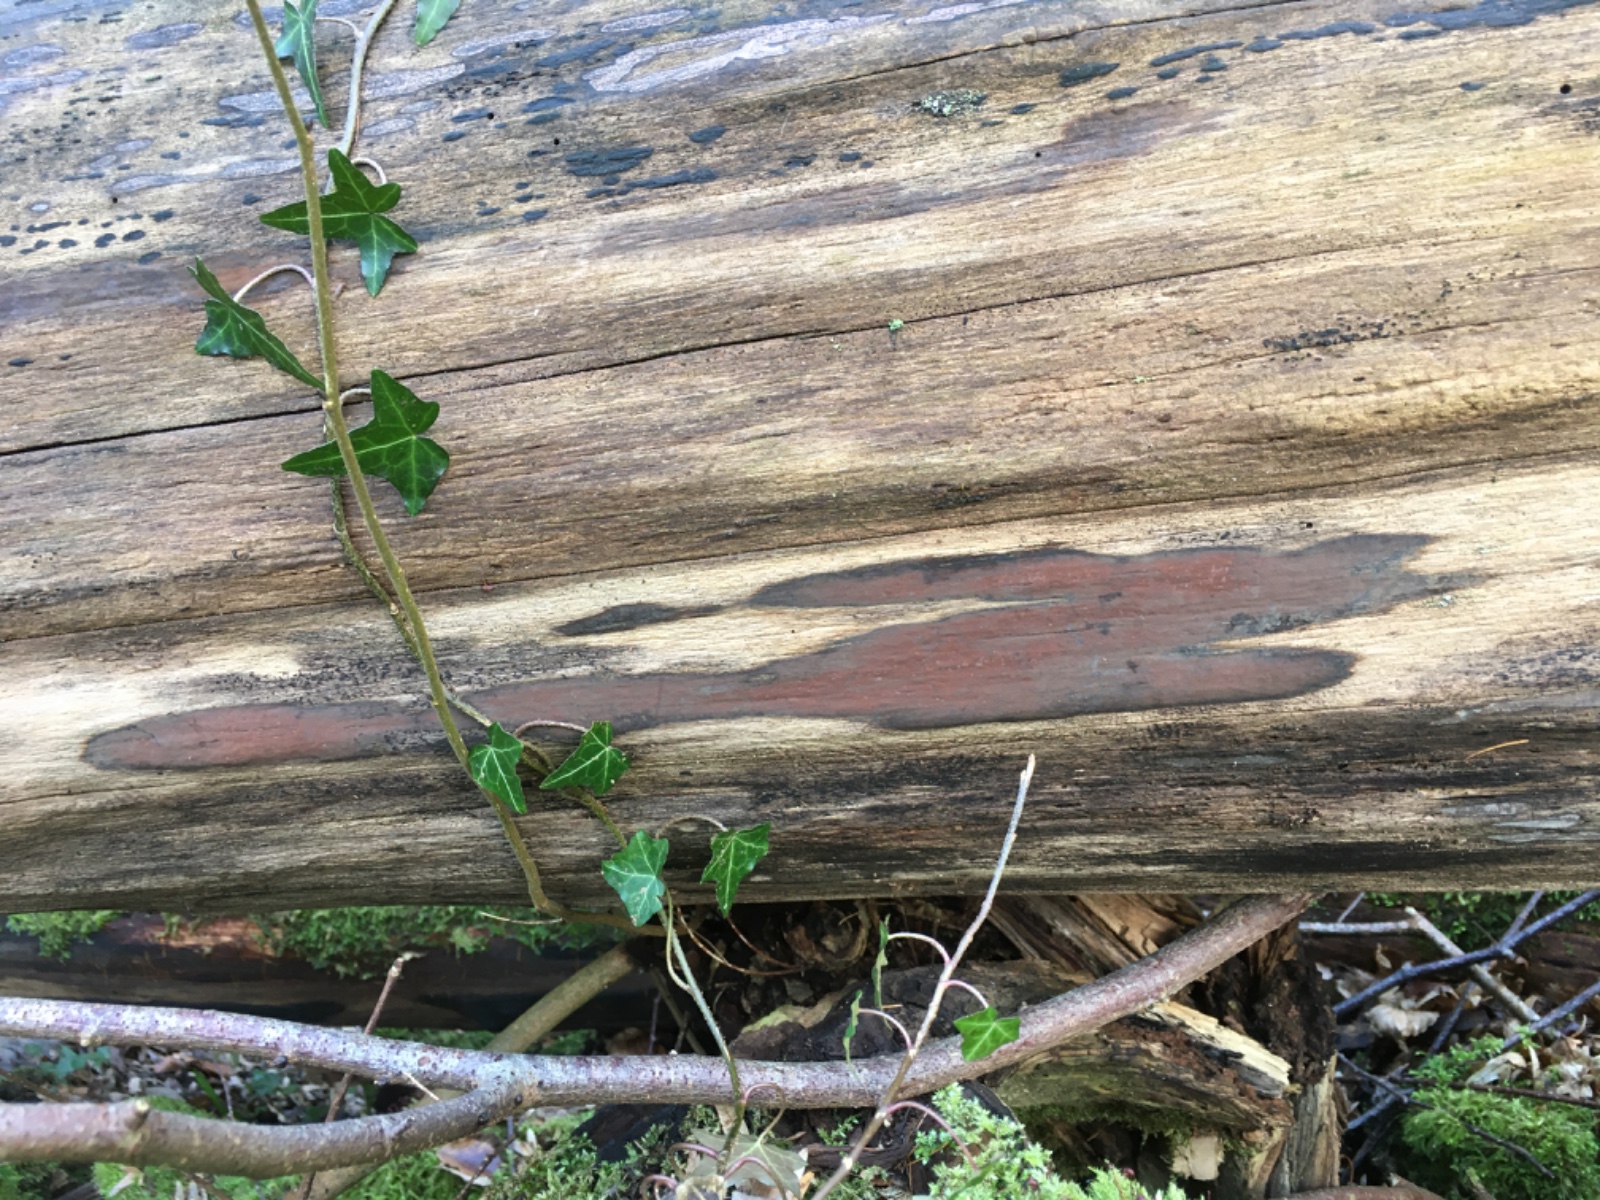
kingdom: Fungi
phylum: Ascomycota
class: Sordariomycetes
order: Xylariales
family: Hypoxylaceae
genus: Hypoxylon
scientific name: Hypoxylon macrocarpum
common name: skorpe-kulbær
